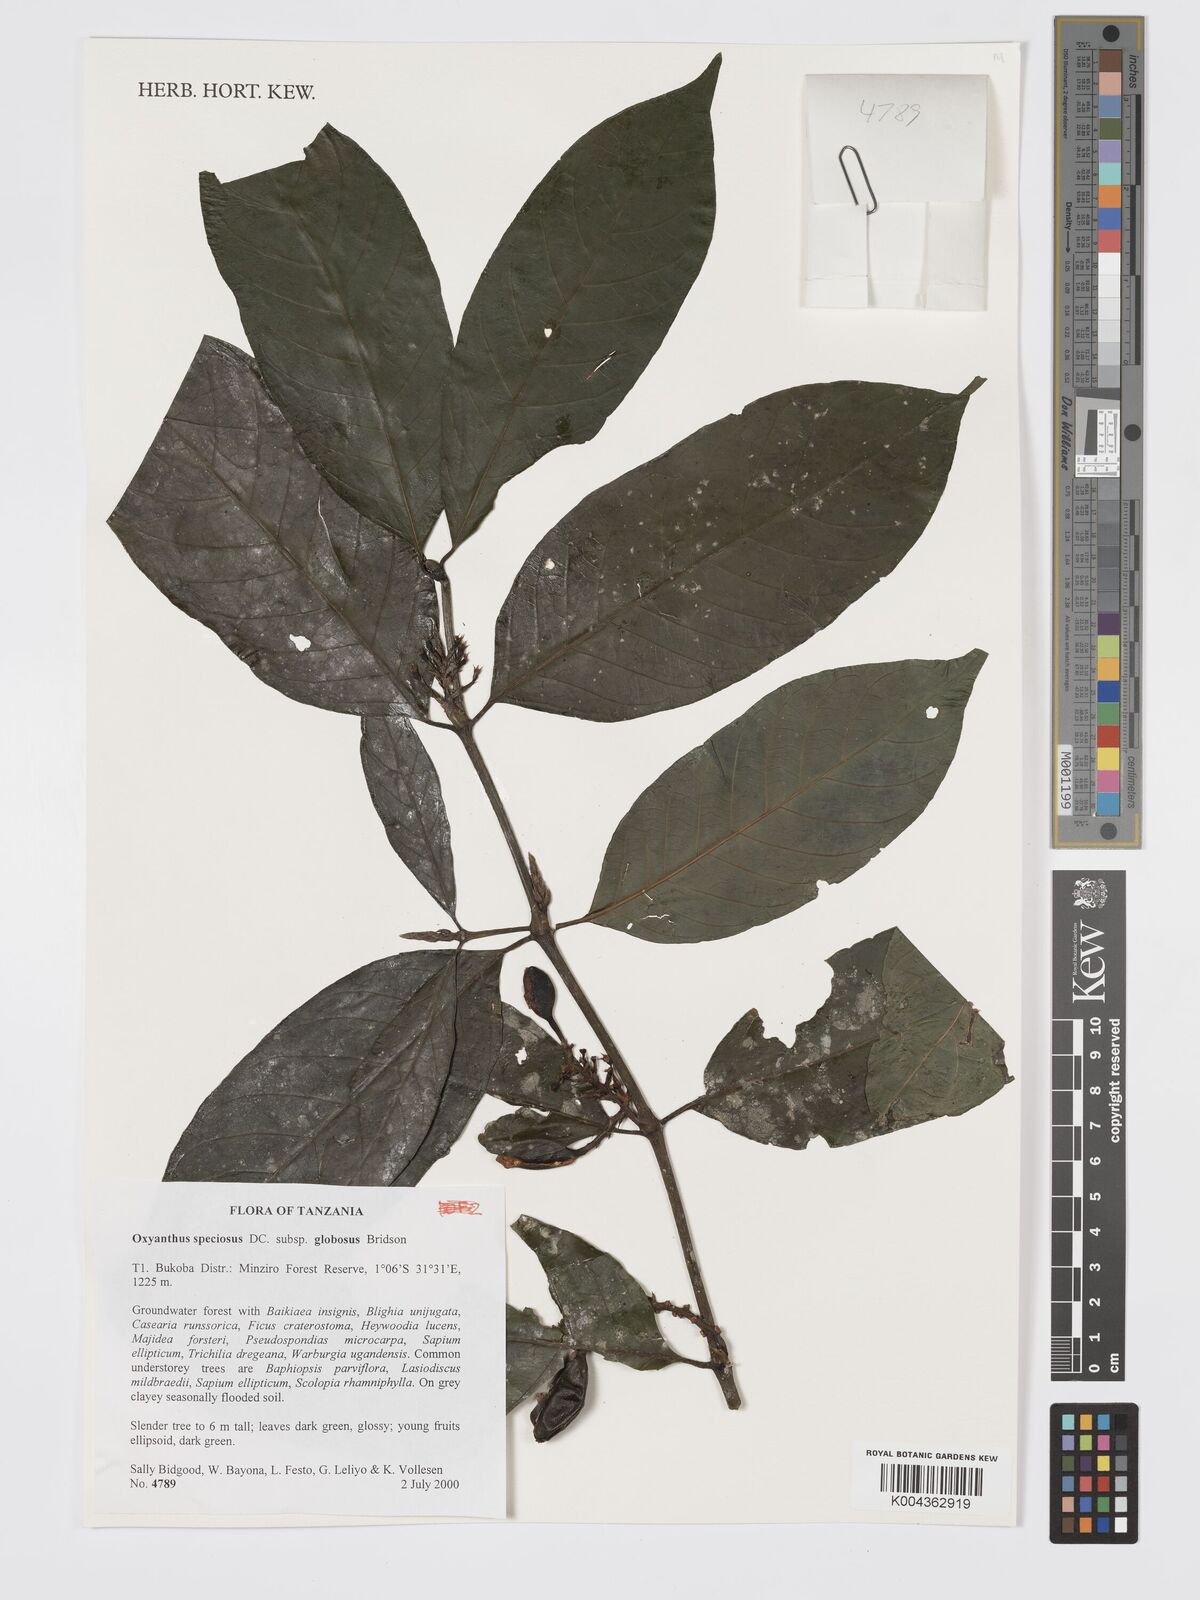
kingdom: Plantae
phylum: Tracheophyta
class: Magnoliopsida
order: Gentianales
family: Rubiaceae
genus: Oxyanthus
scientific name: Oxyanthus speciosus
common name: Whipstick loquat
